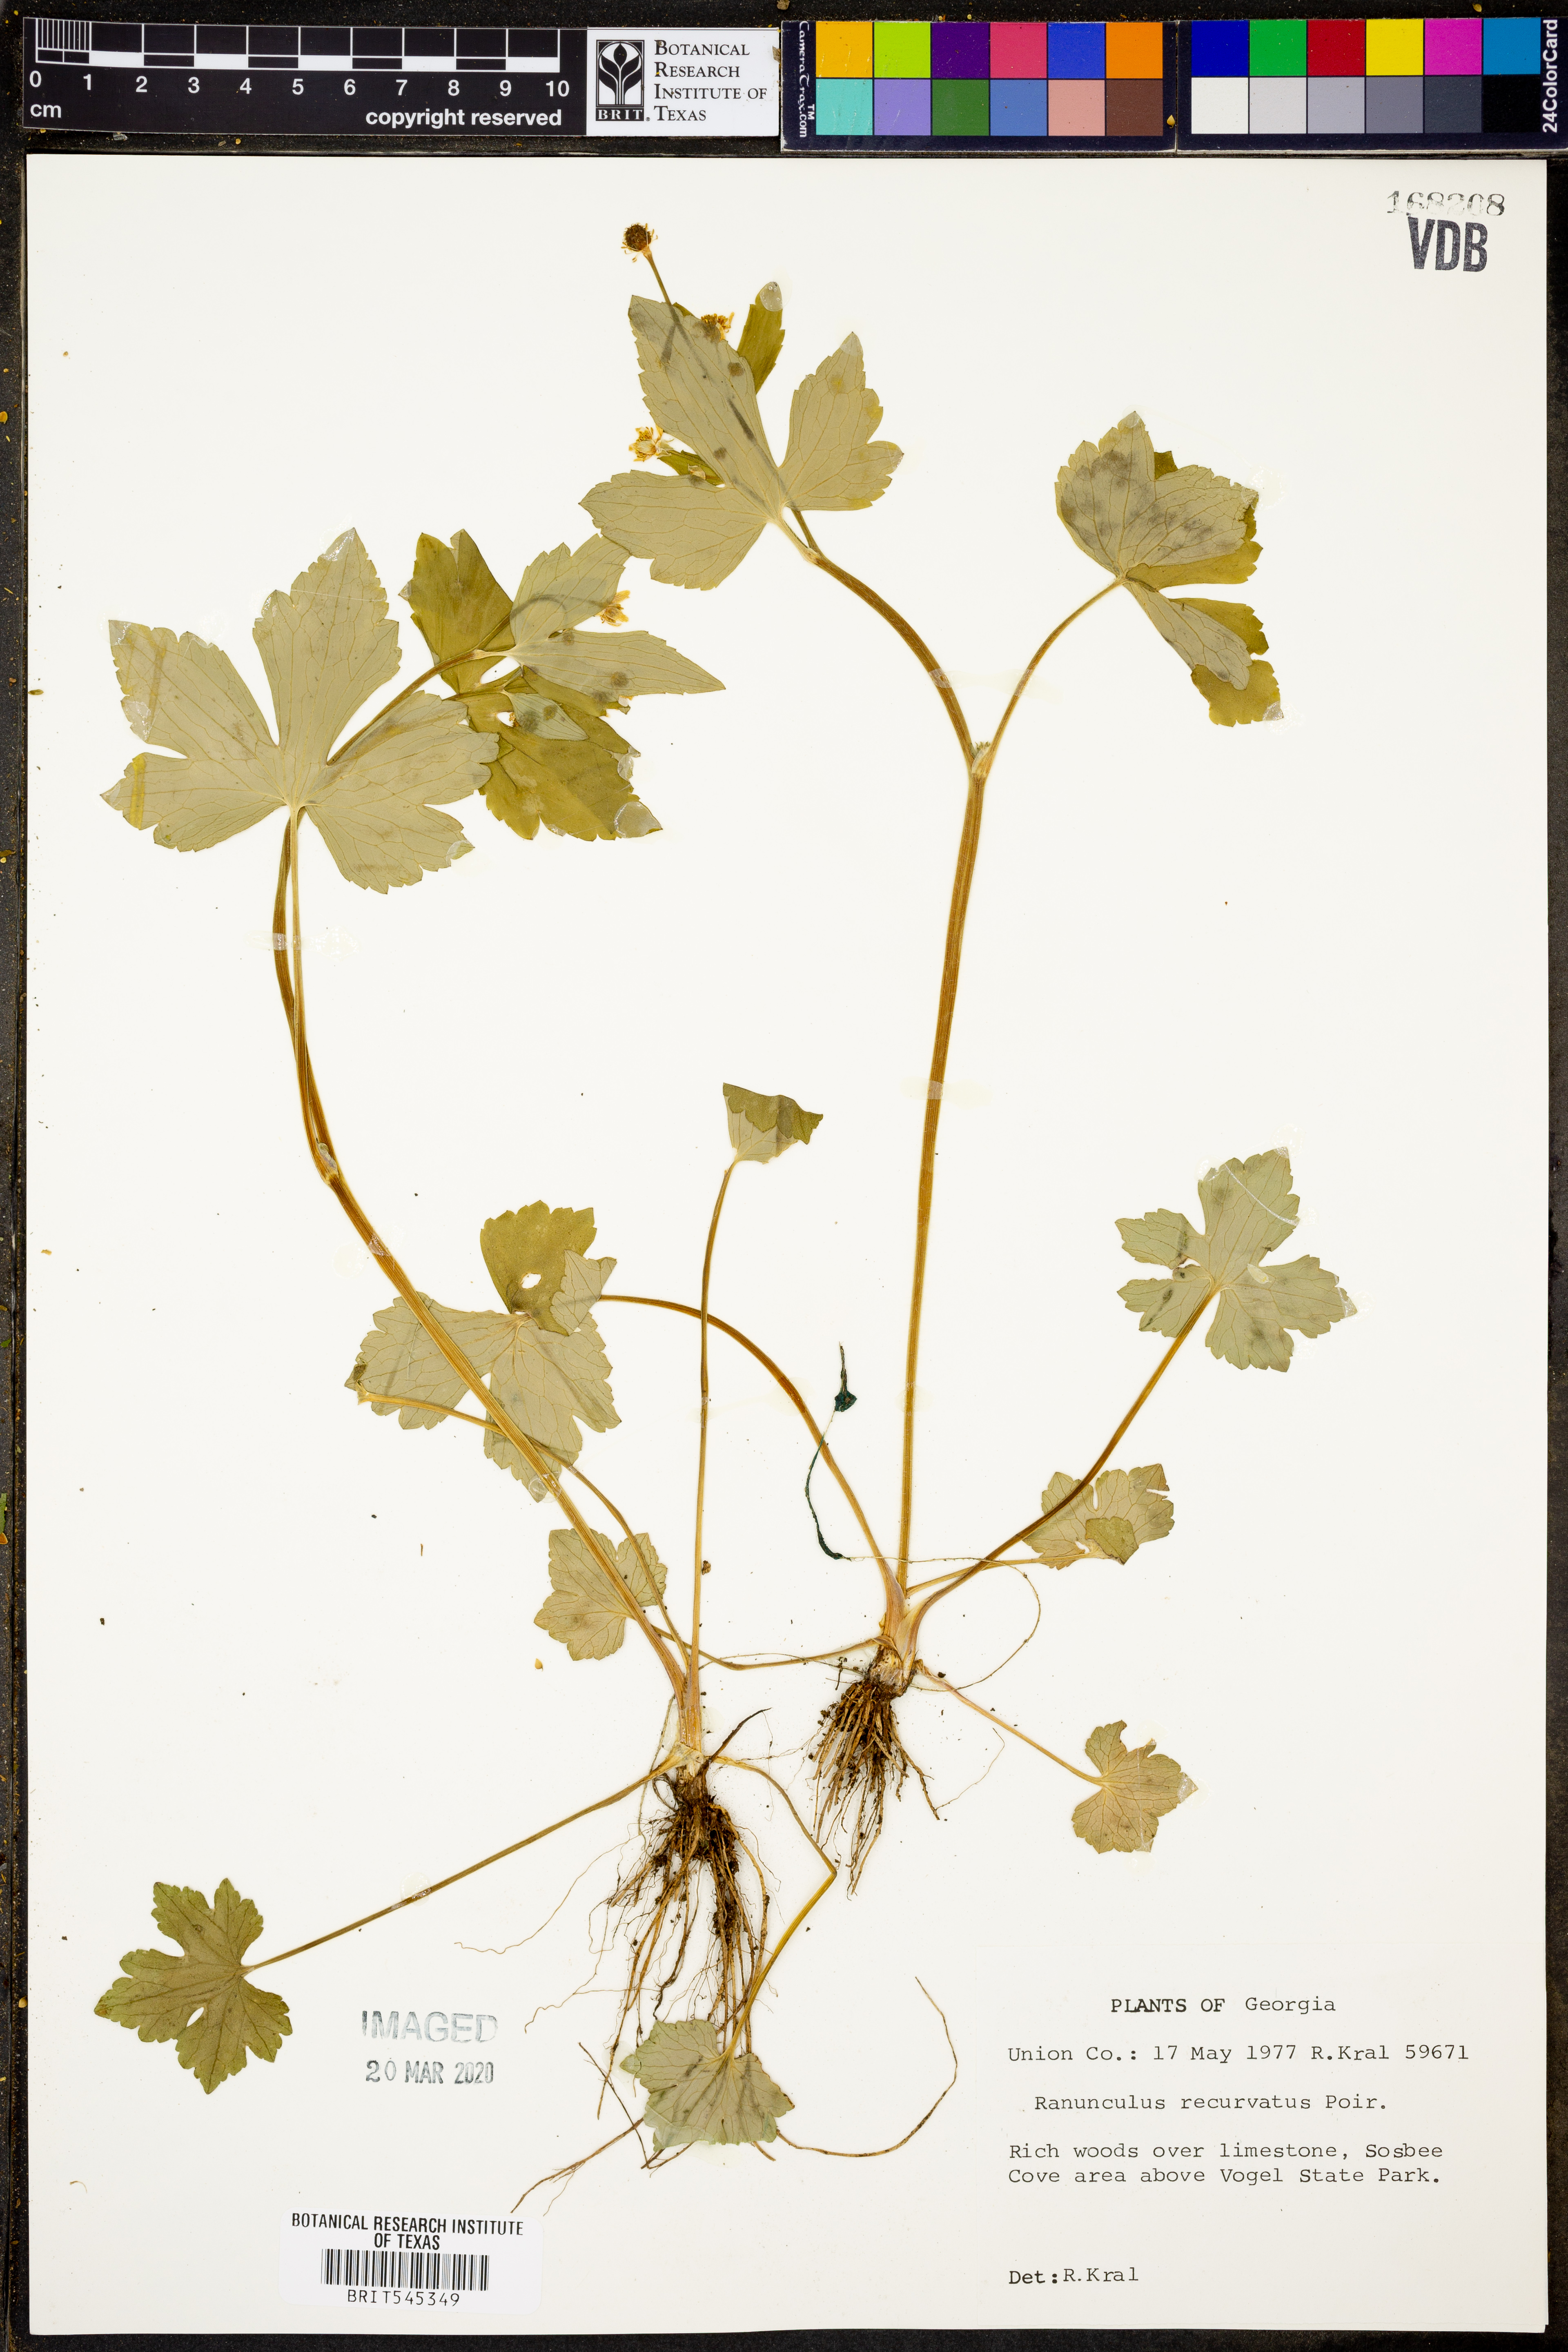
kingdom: Plantae
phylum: Tracheophyta
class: Magnoliopsida
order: Ranunculales
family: Ranunculaceae
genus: Ranunculus
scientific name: Ranunculus recurvatus
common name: Blisterwort
